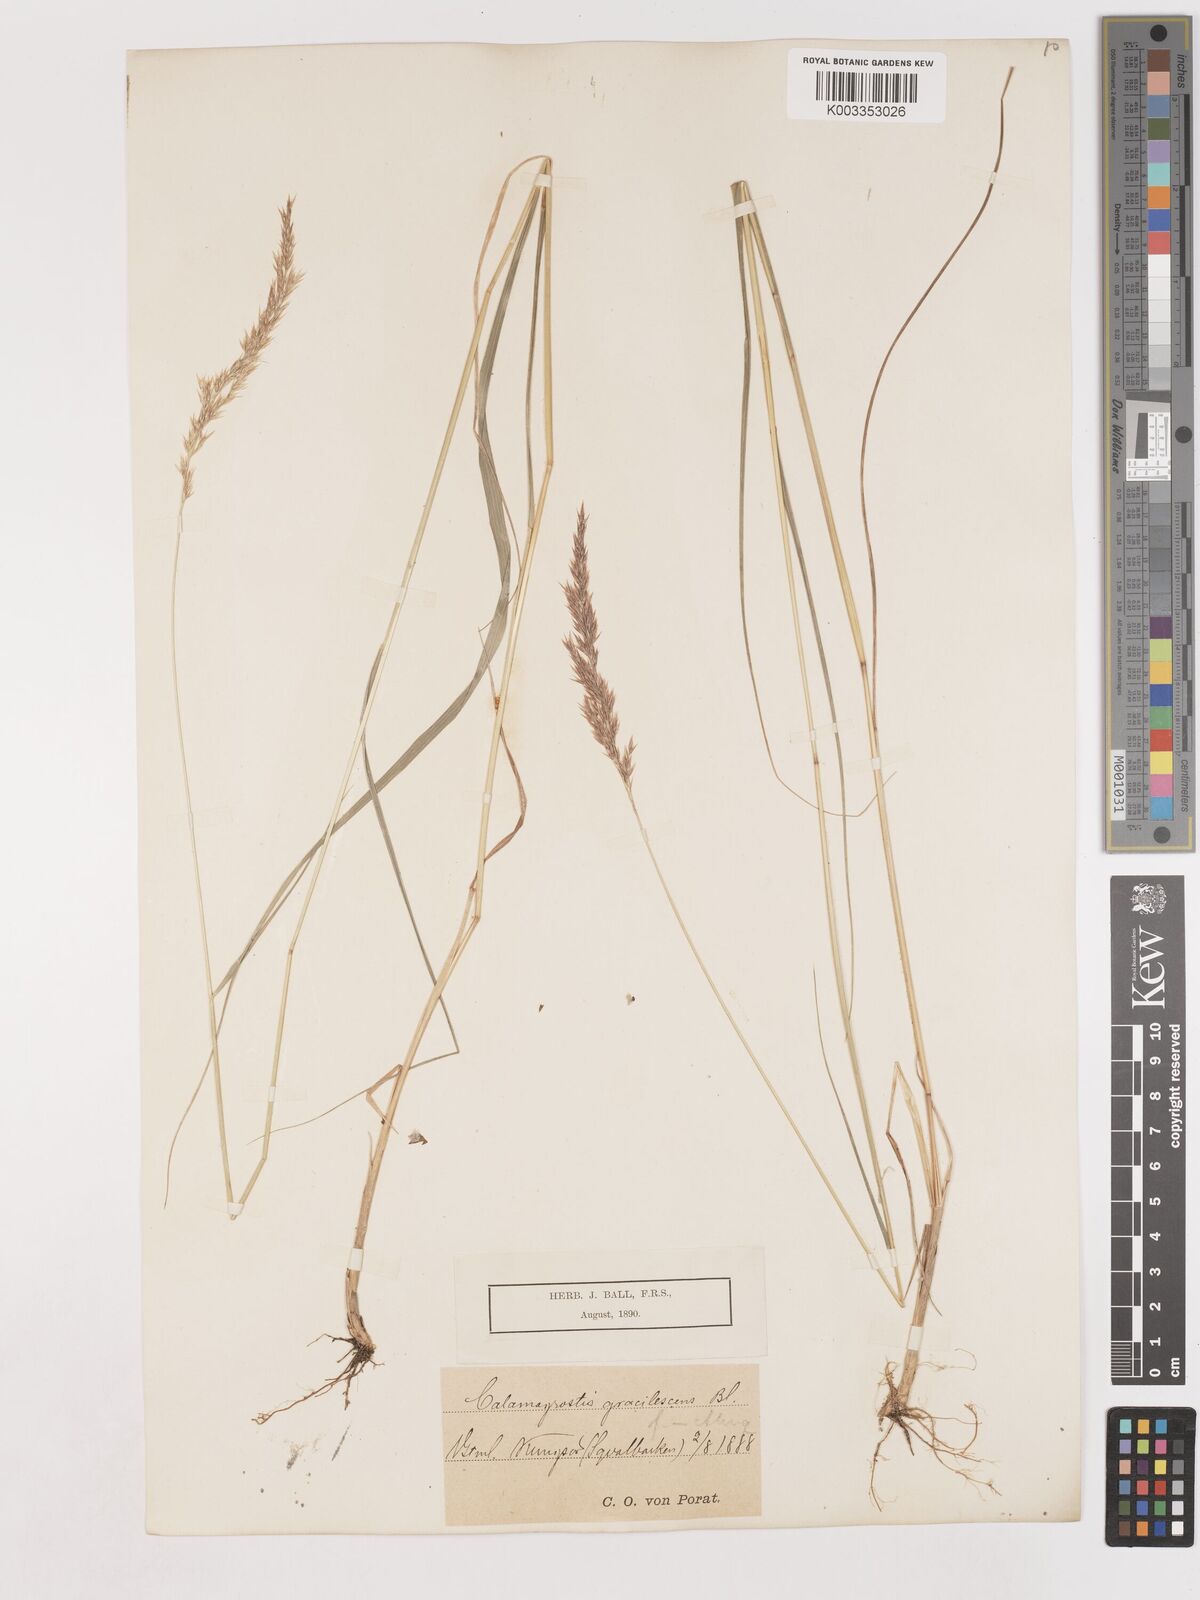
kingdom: Plantae
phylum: Tracheophyta
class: Liliopsida
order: Poales
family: Poaceae
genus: Calamagrostis
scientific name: Calamagrostis canescens
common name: Purple small-reed
